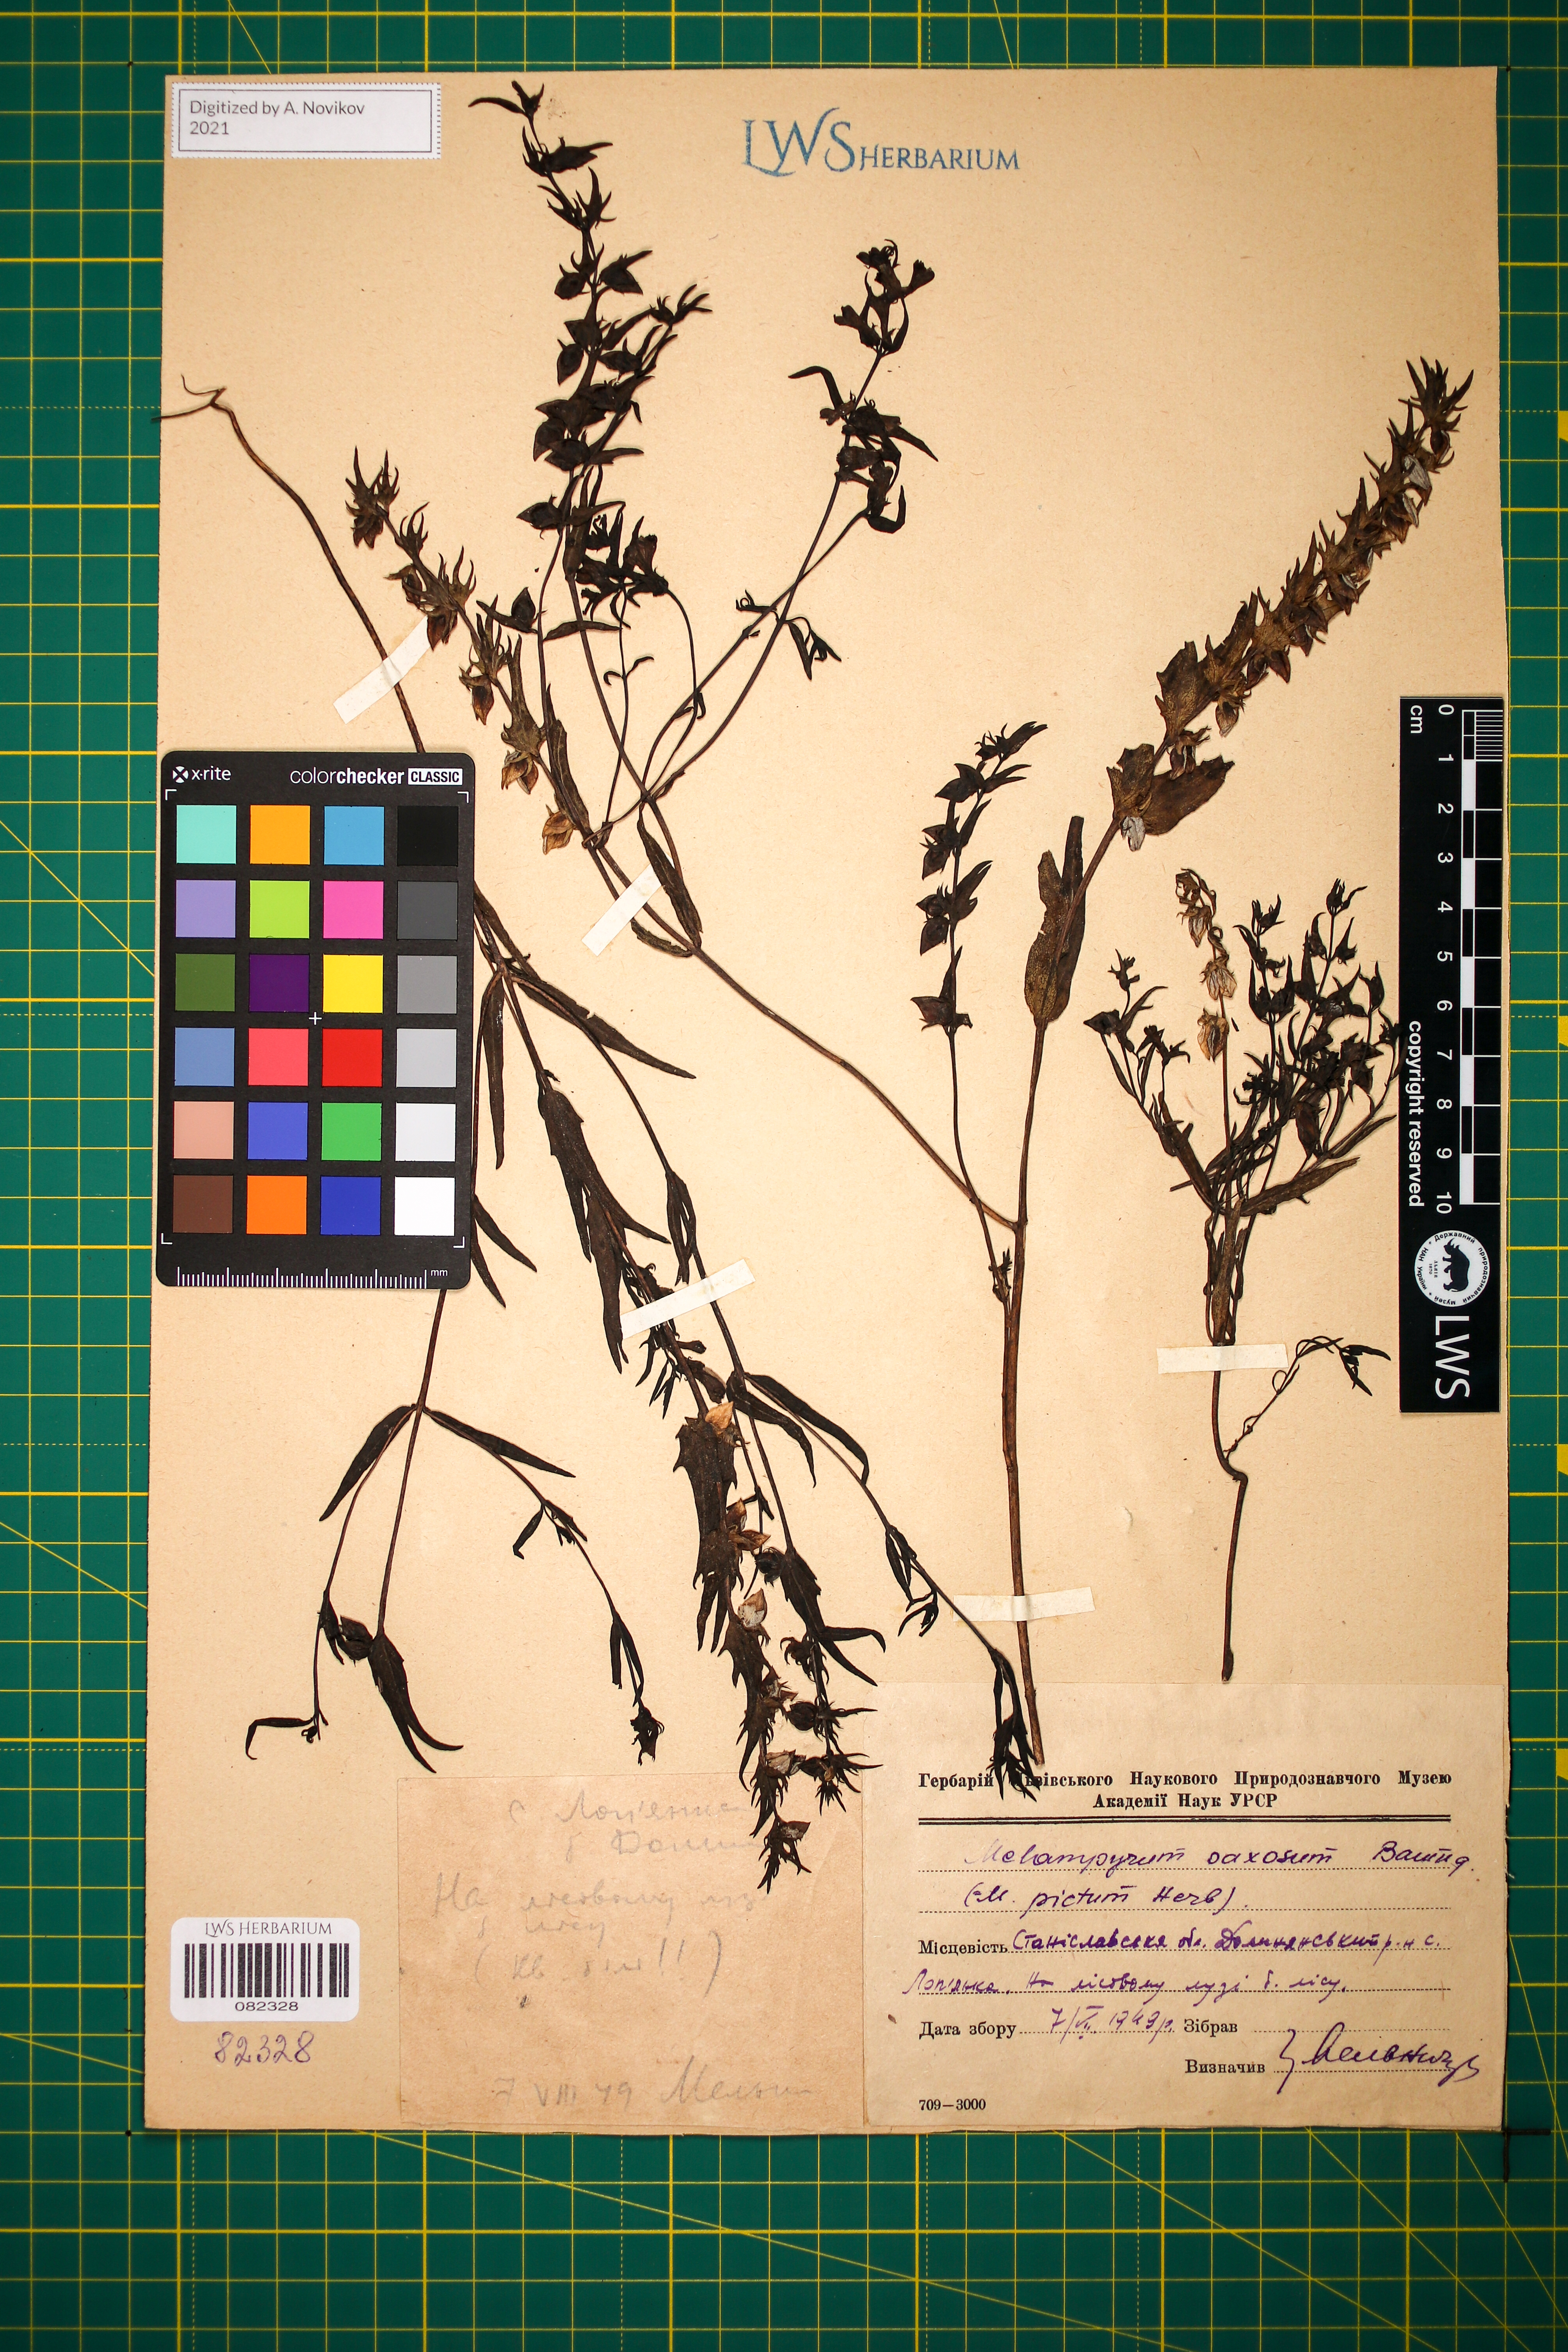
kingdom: Plantae
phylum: Tracheophyta
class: Magnoliopsida
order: Lamiales
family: Orobanchaceae
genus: Melampyrum
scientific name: Melampyrum saxosum
